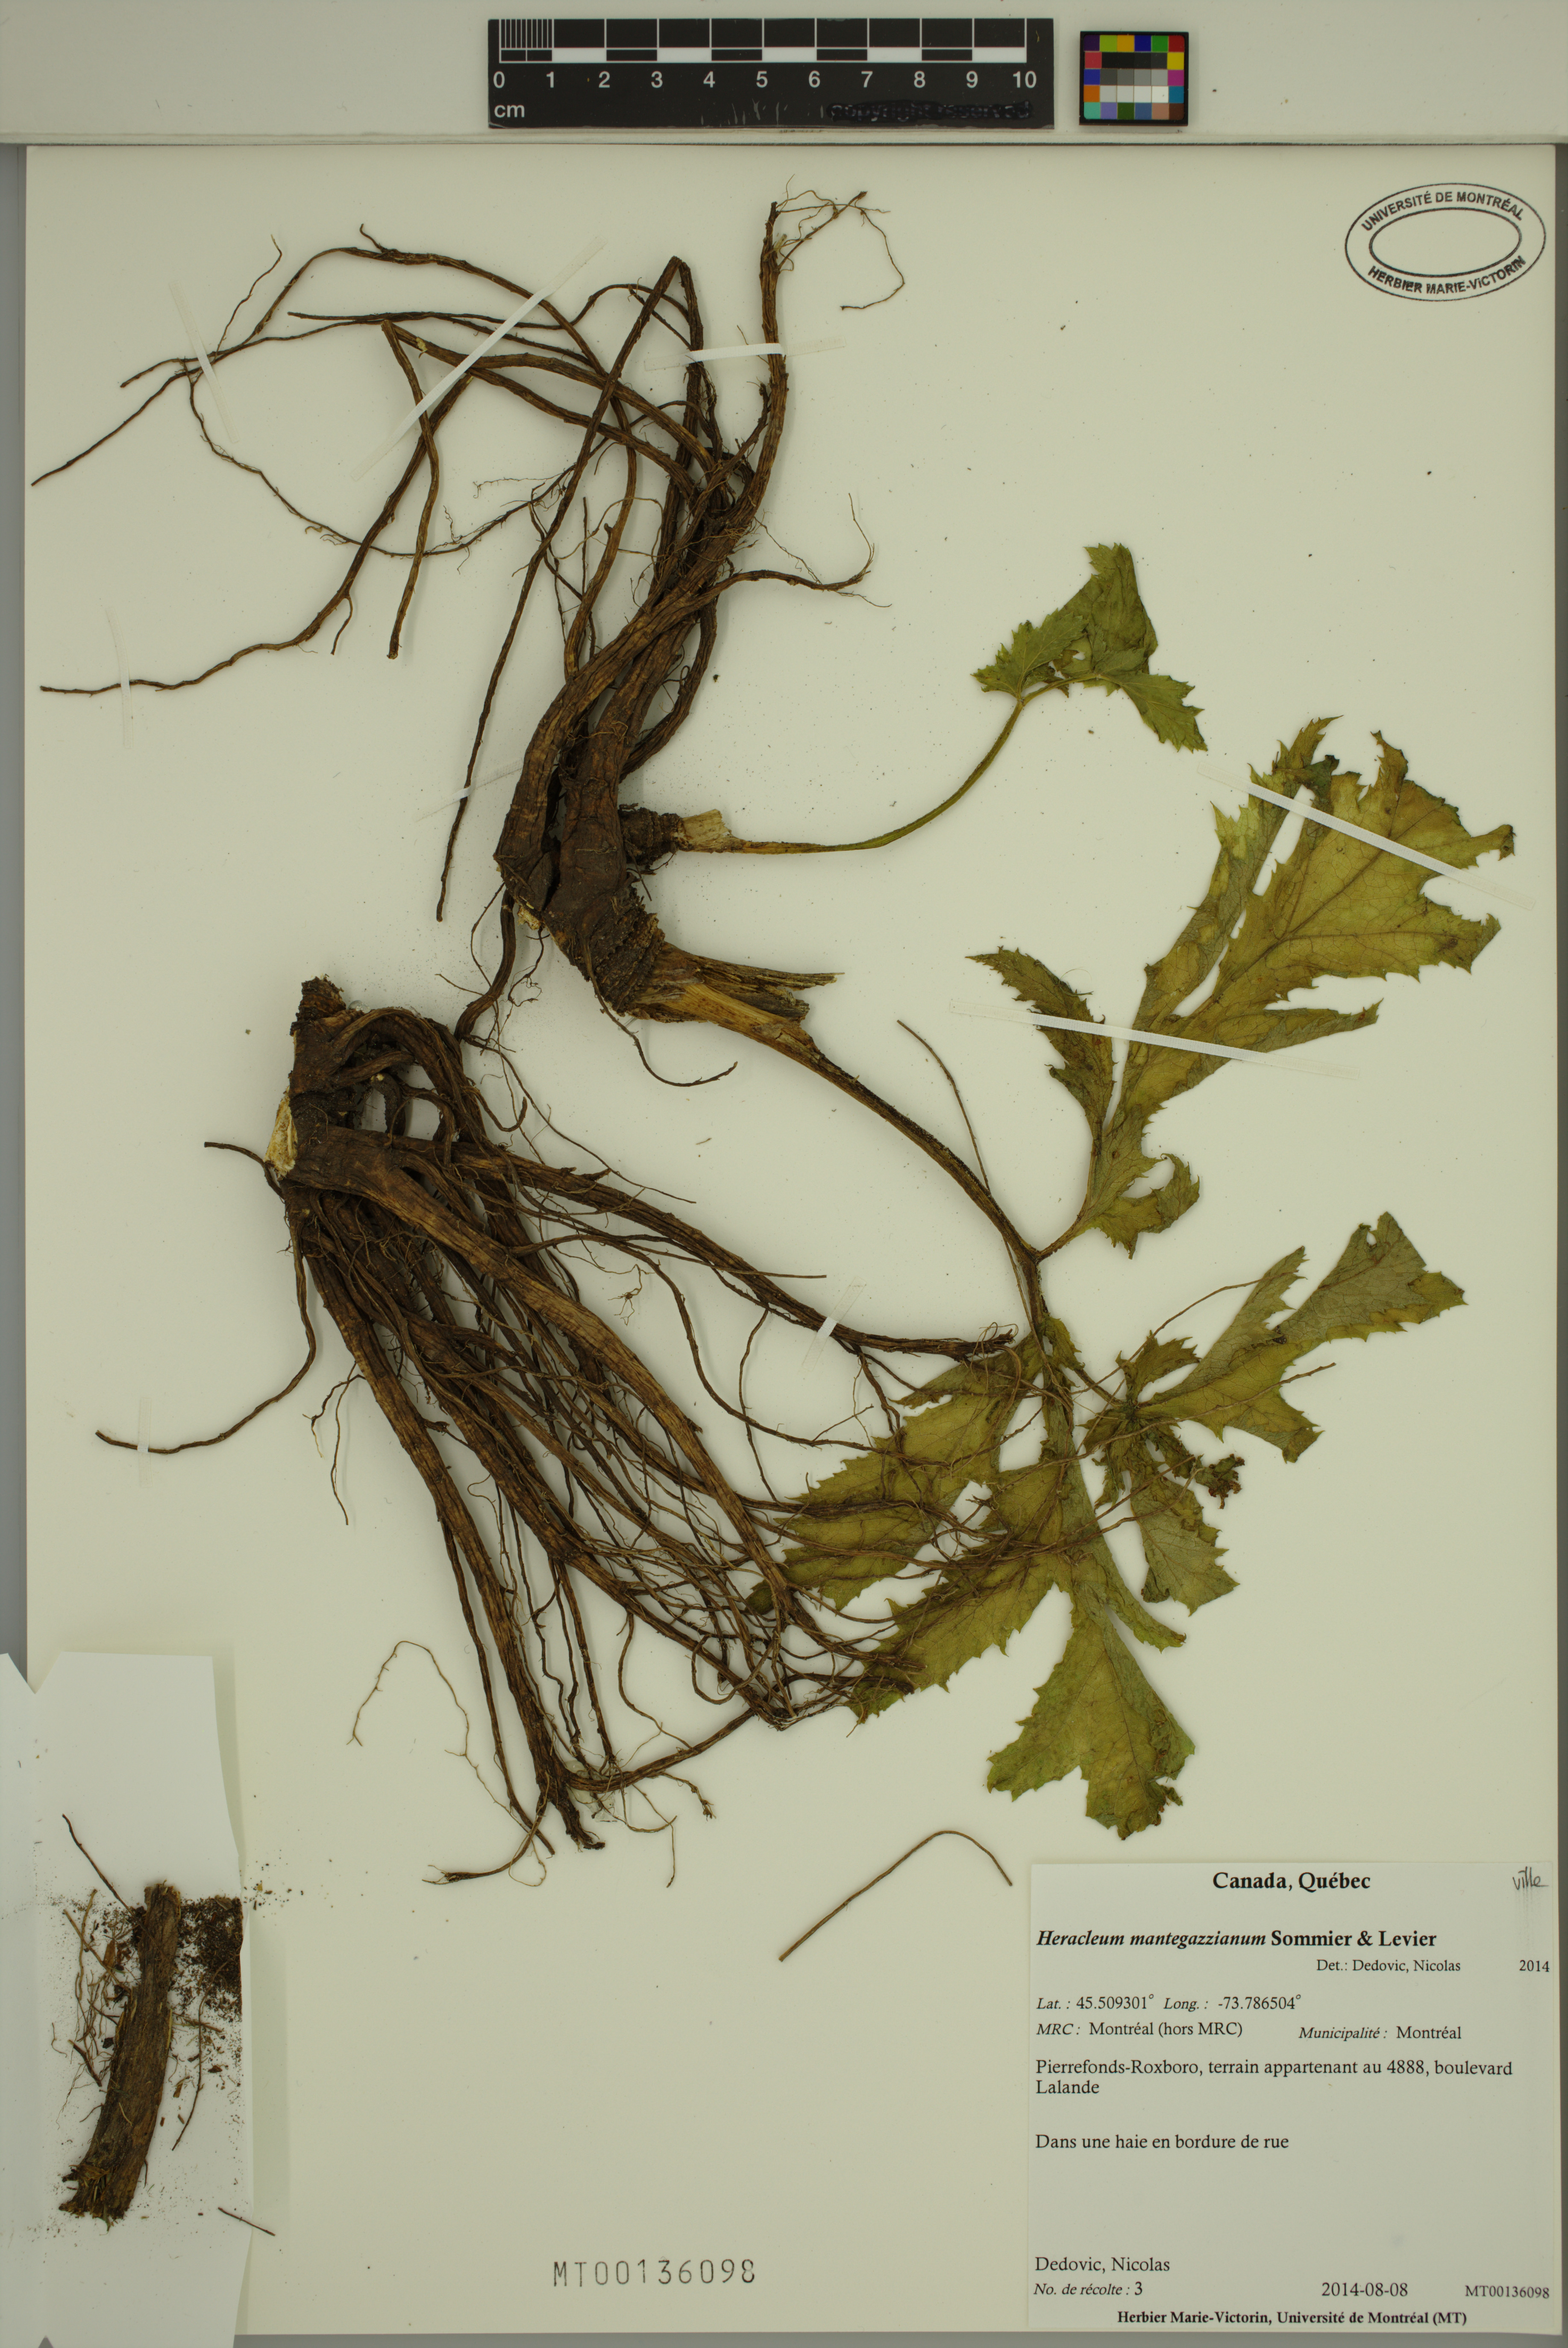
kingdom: Plantae
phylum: Tracheophyta
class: Magnoliopsida
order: Apiales
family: Apiaceae
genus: Heracleum
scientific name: Heracleum mantegazzianum
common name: Giant hogweed
